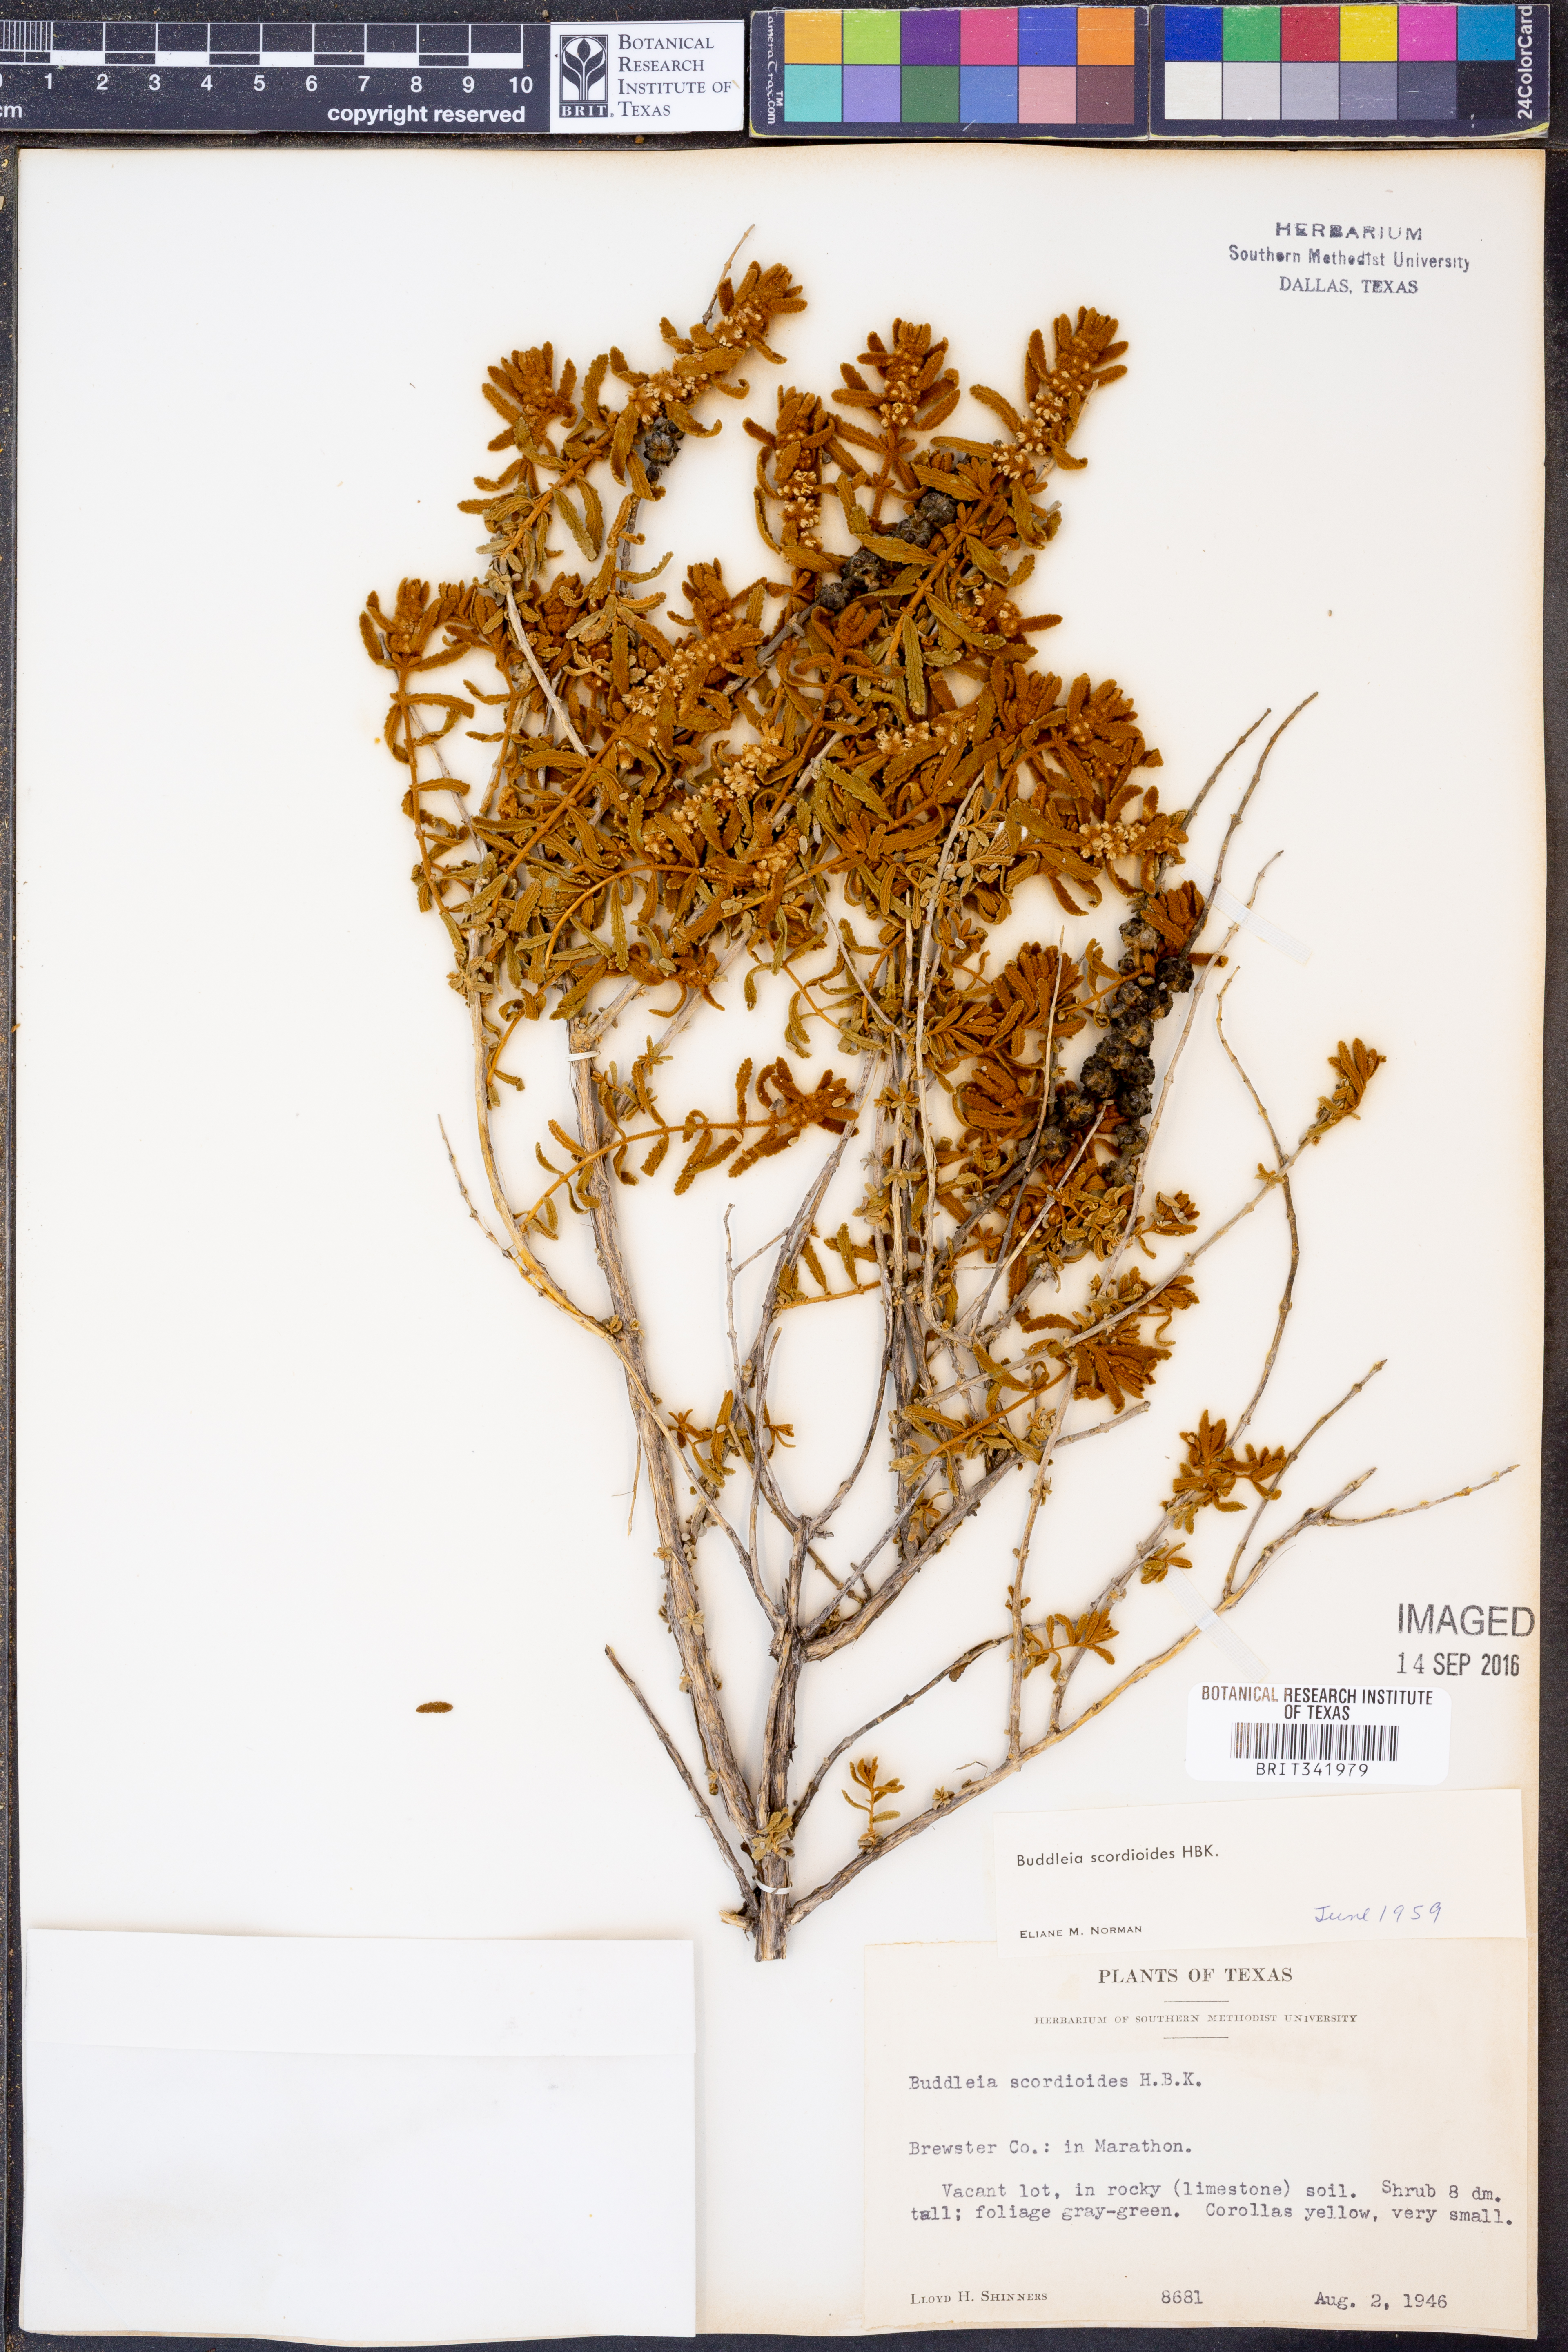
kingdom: Plantae
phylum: Tracheophyta
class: Magnoliopsida
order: Lamiales
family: Scrophulariaceae
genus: Buddleja
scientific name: Buddleja scordioides
